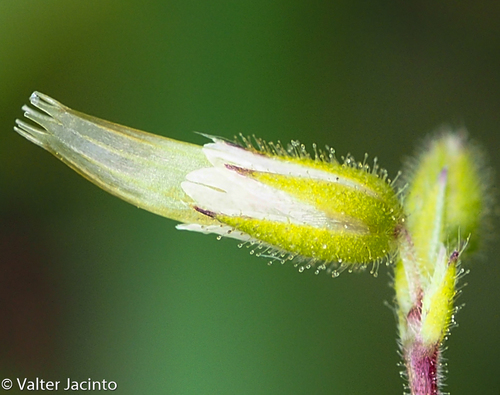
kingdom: Plantae
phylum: Tracheophyta
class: Magnoliopsida
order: Caryophyllales
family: Caryophyllaceae
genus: Cerastium
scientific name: Cerastium glomeratum
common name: Sticky chickweed
